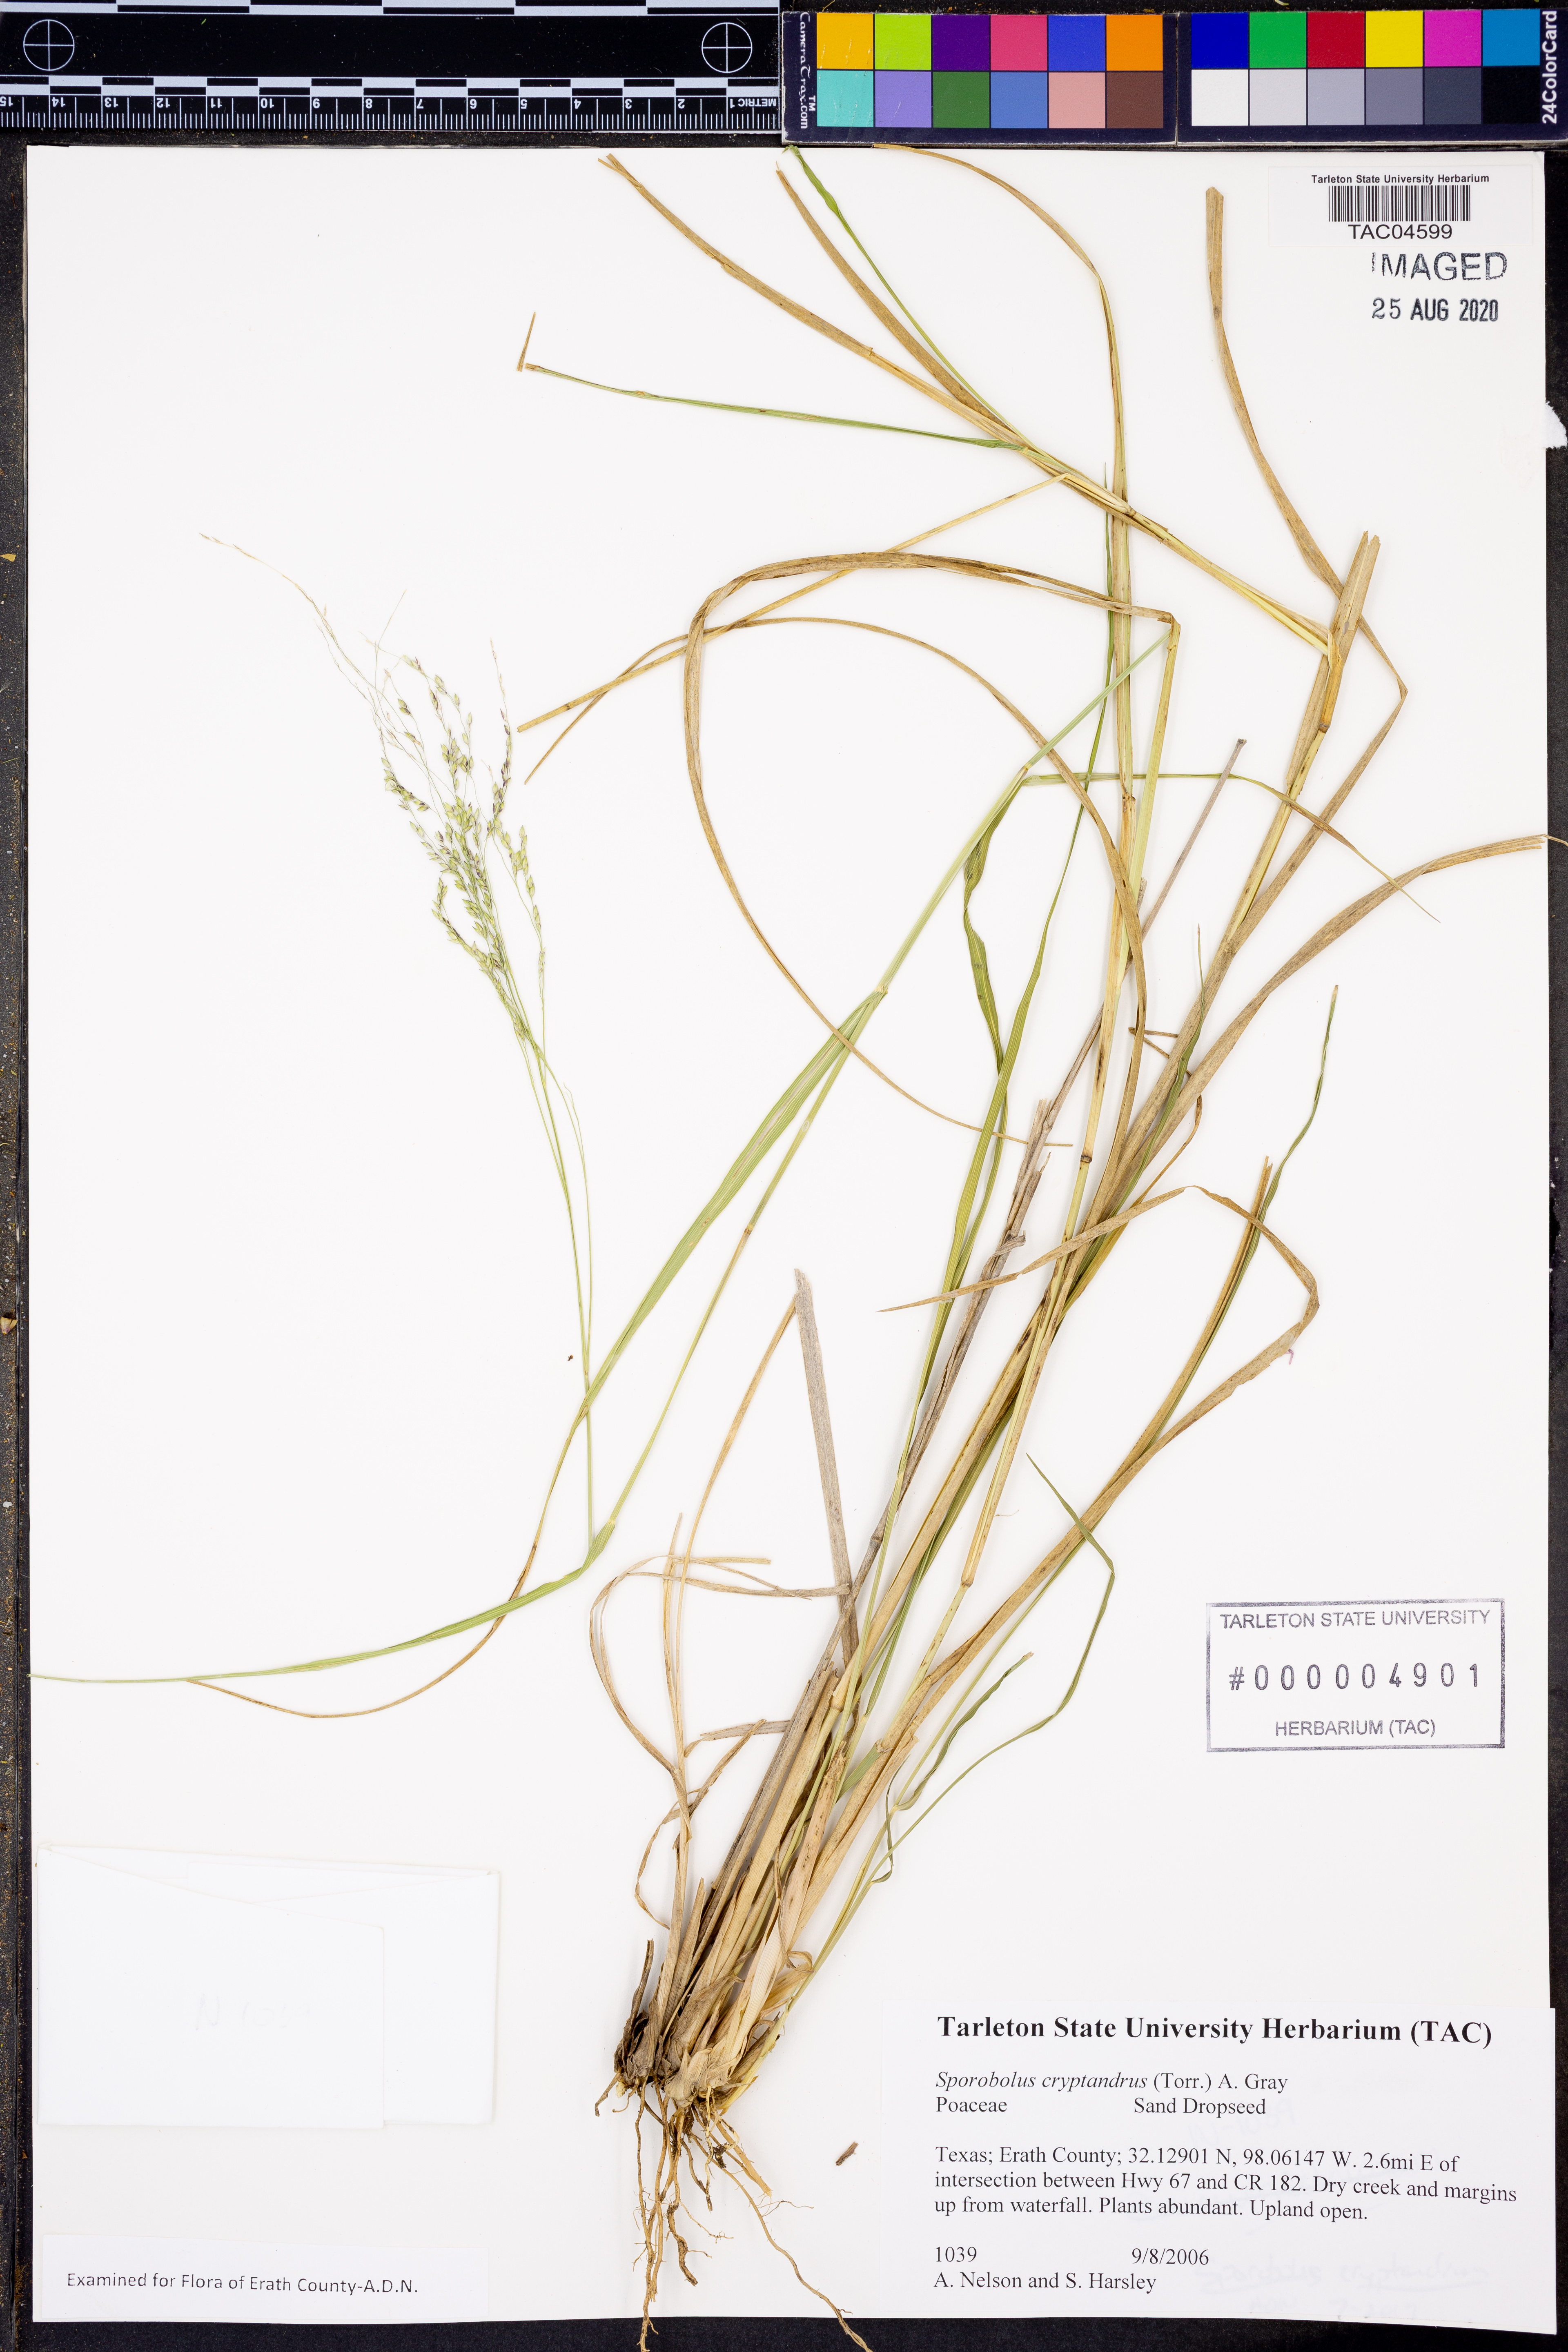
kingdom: Plantae
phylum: Tracheophyta
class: Liliopsida
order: Poales
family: Poaceae
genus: Sporobolus
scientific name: Sporobolus cryptandrus
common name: Sand dropseed
